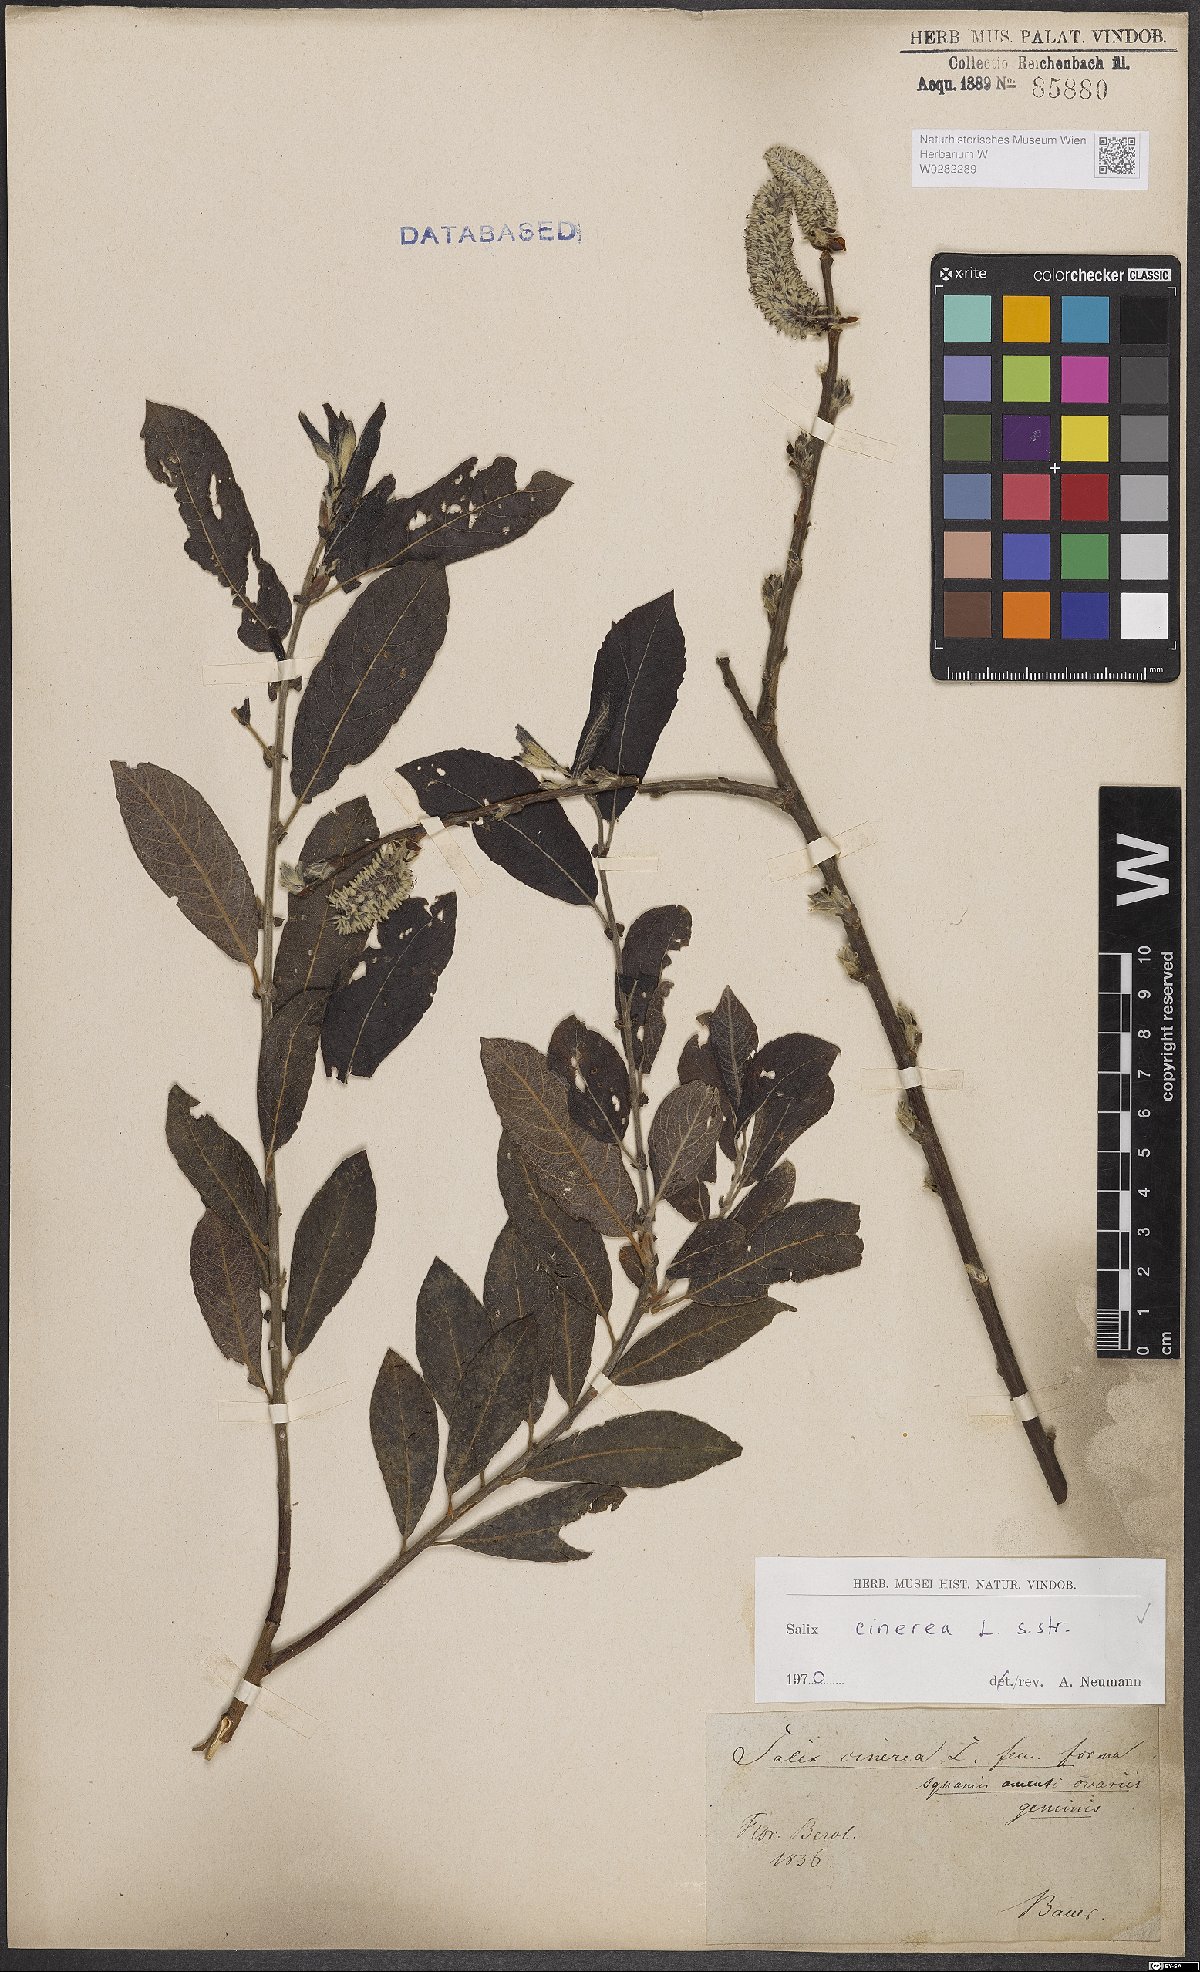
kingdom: Plantae
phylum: Tracheophyta
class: Magnoliopsida
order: Malpighiales
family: Salicaceae
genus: Salix
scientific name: Salix cinerea
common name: Common sallow
